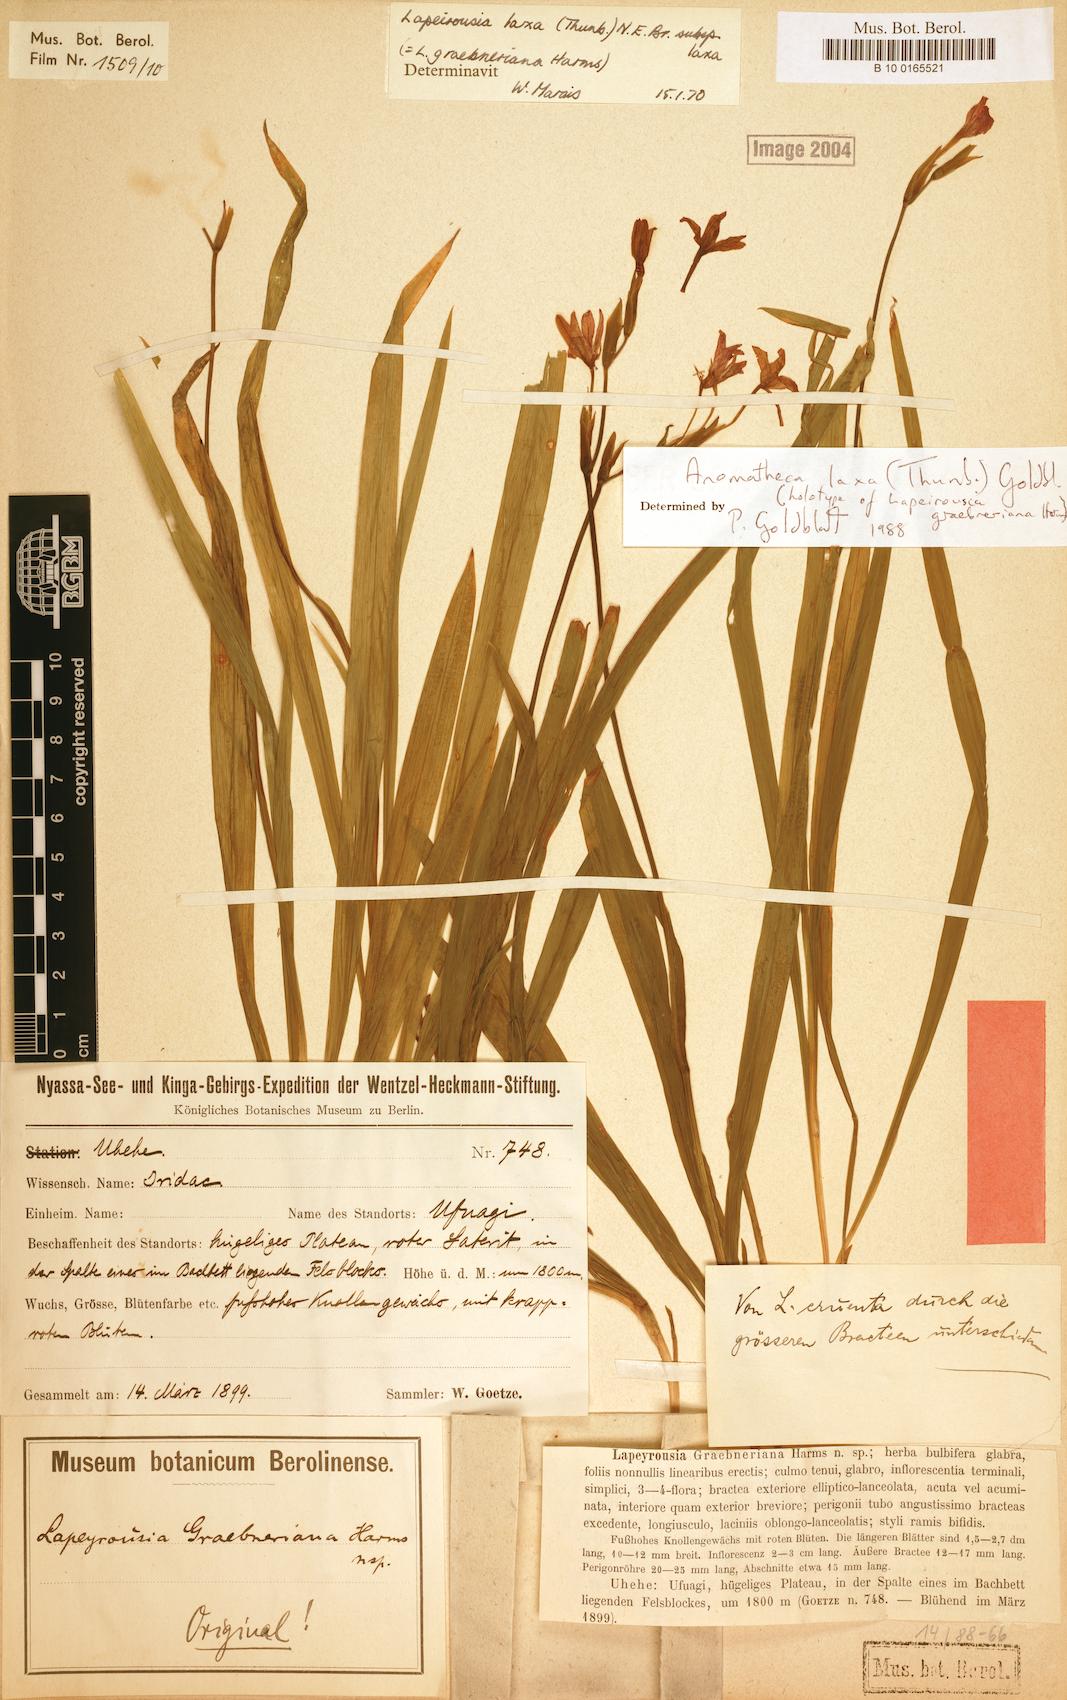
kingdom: Plantae
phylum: Tracheophyta
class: Liliopsida
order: Asparagales
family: Iridaceae
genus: Freesia
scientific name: Freesia laxa
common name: False freesia
